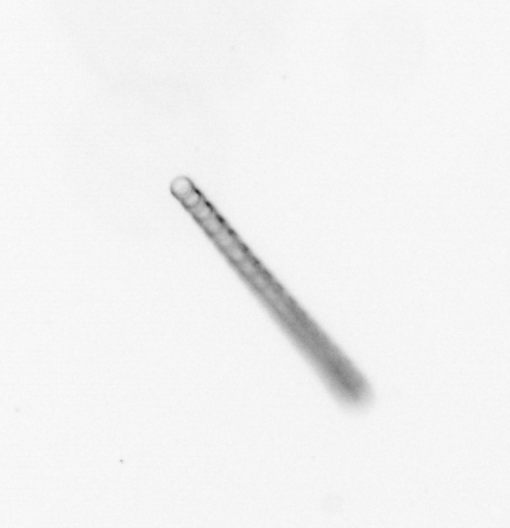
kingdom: Chromista
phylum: Ochrophyta
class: Bacillariophyceae
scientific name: Bacillariophyceae
